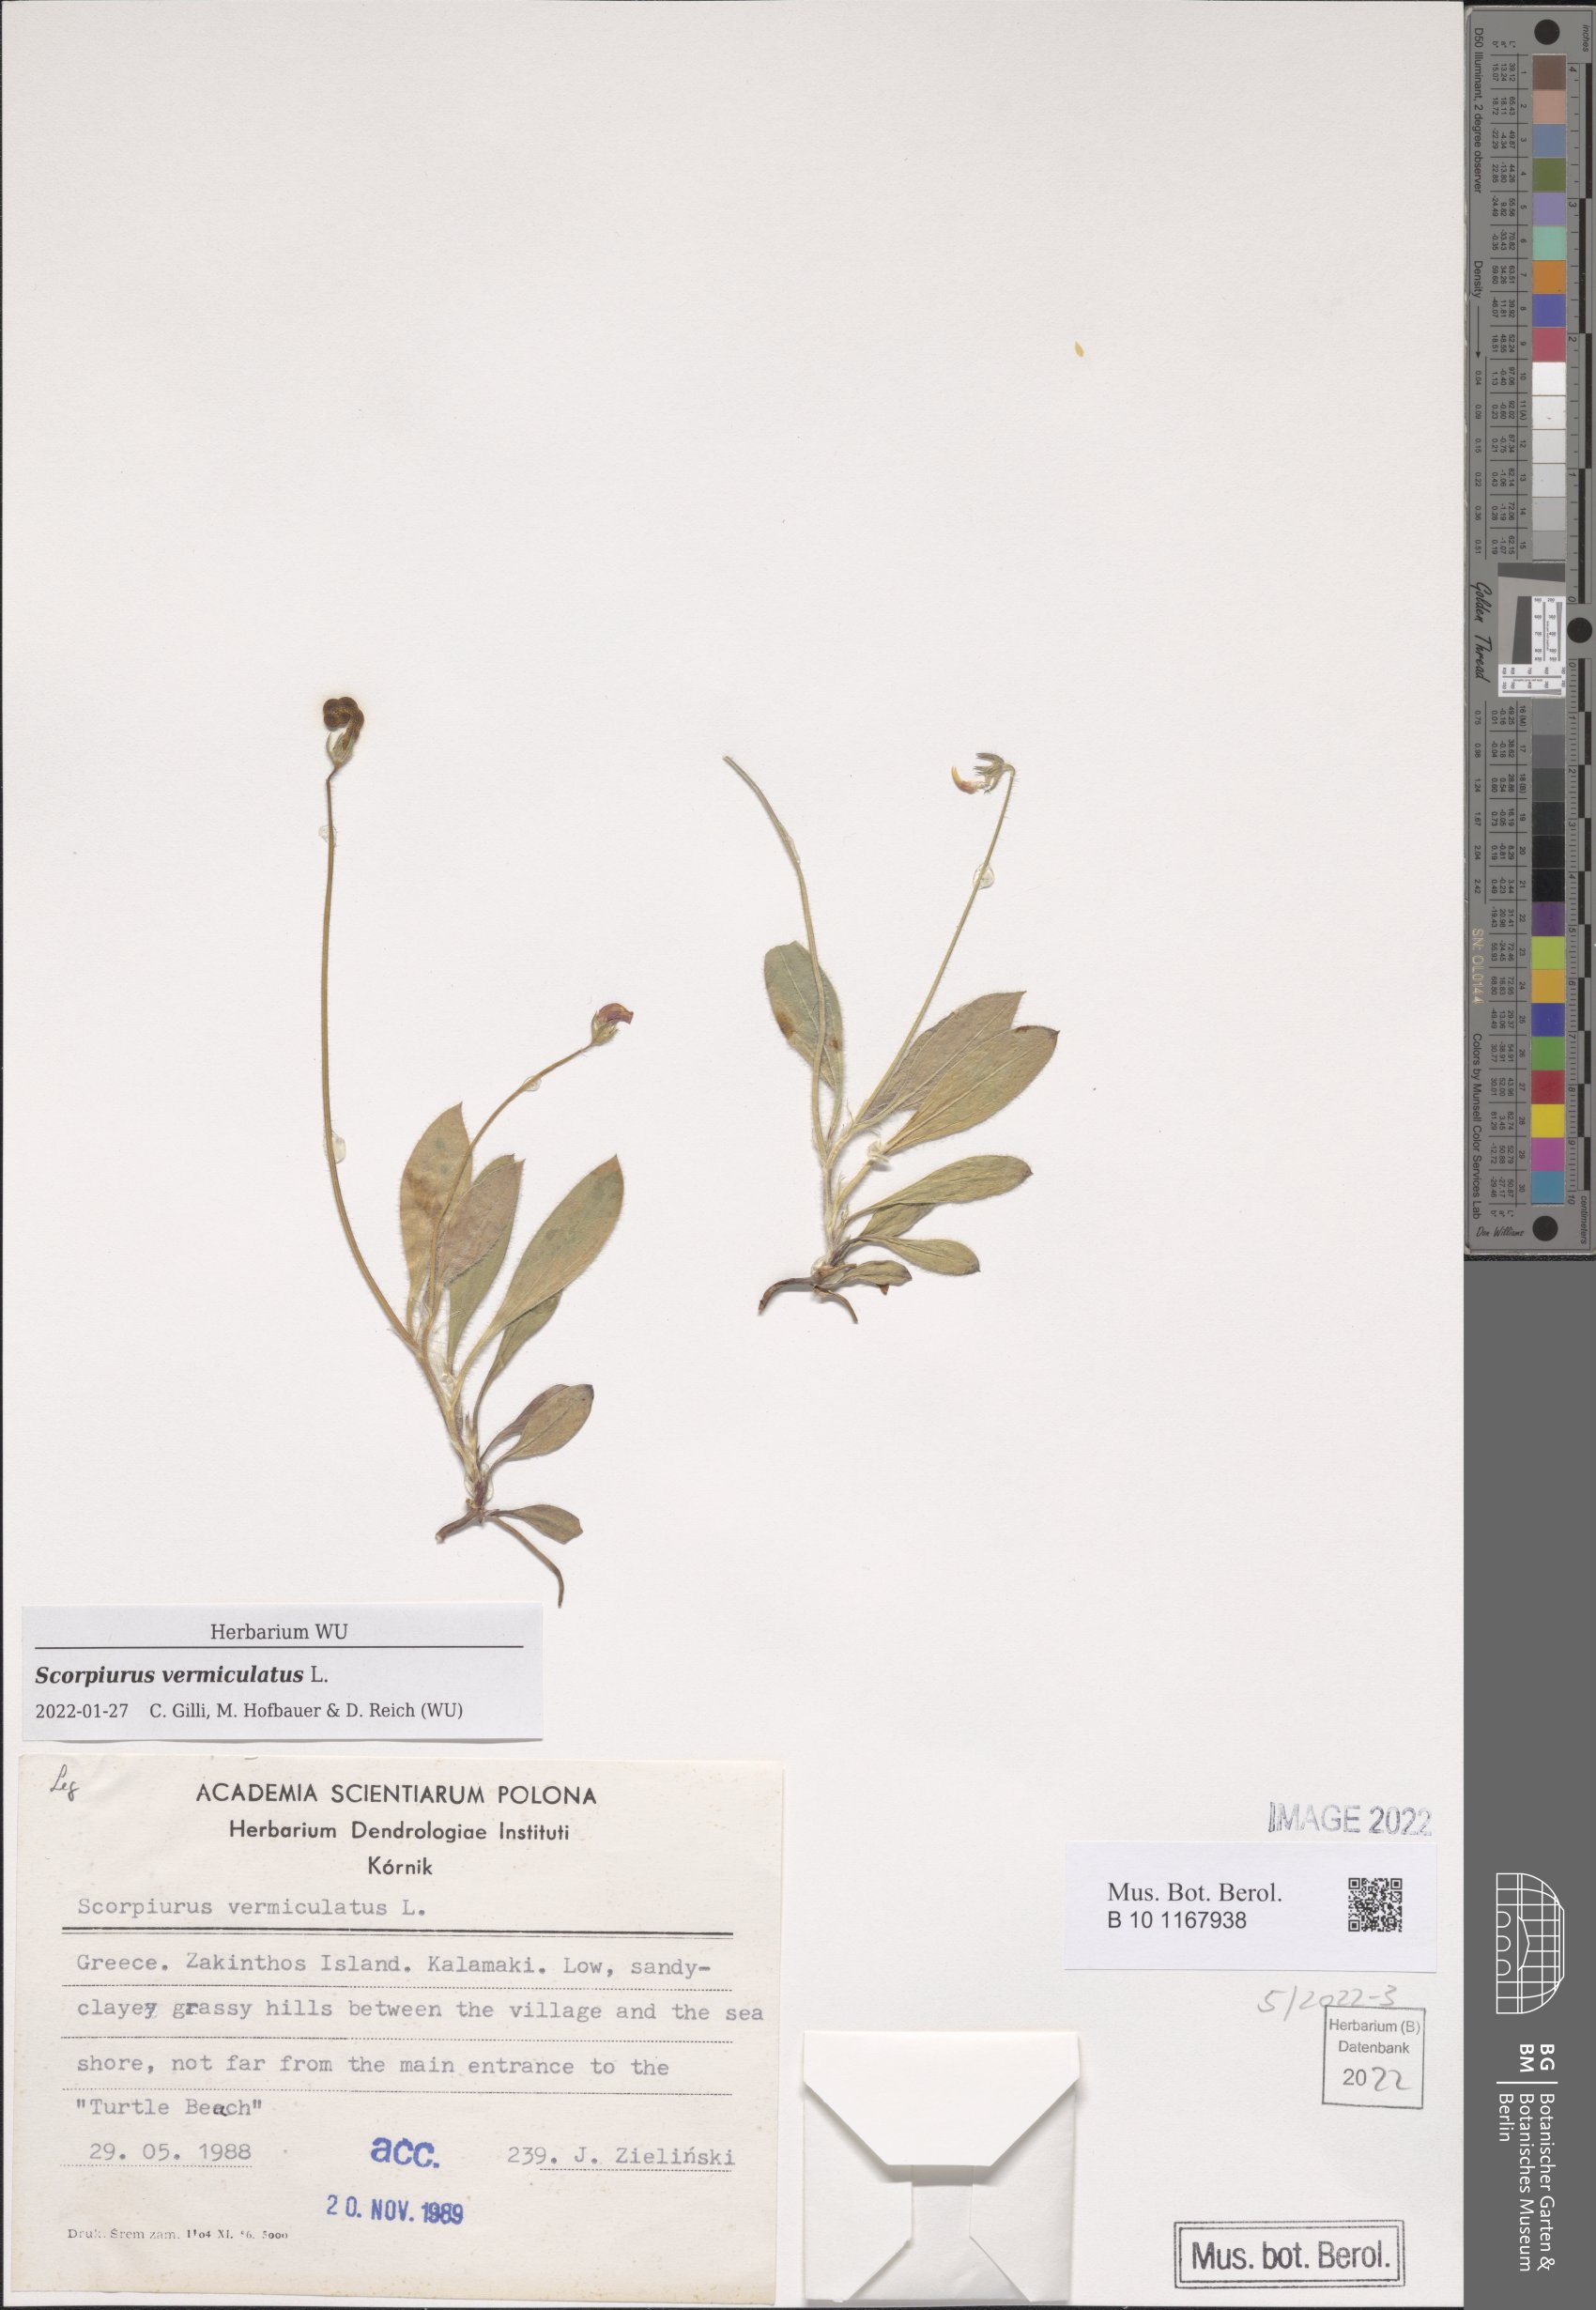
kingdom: Plantae
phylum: Tracheophyta
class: Magnoliopsida
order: Fabales
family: Fabaceae
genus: Scorpiurus
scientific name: Scorpiurus vermiculatus
